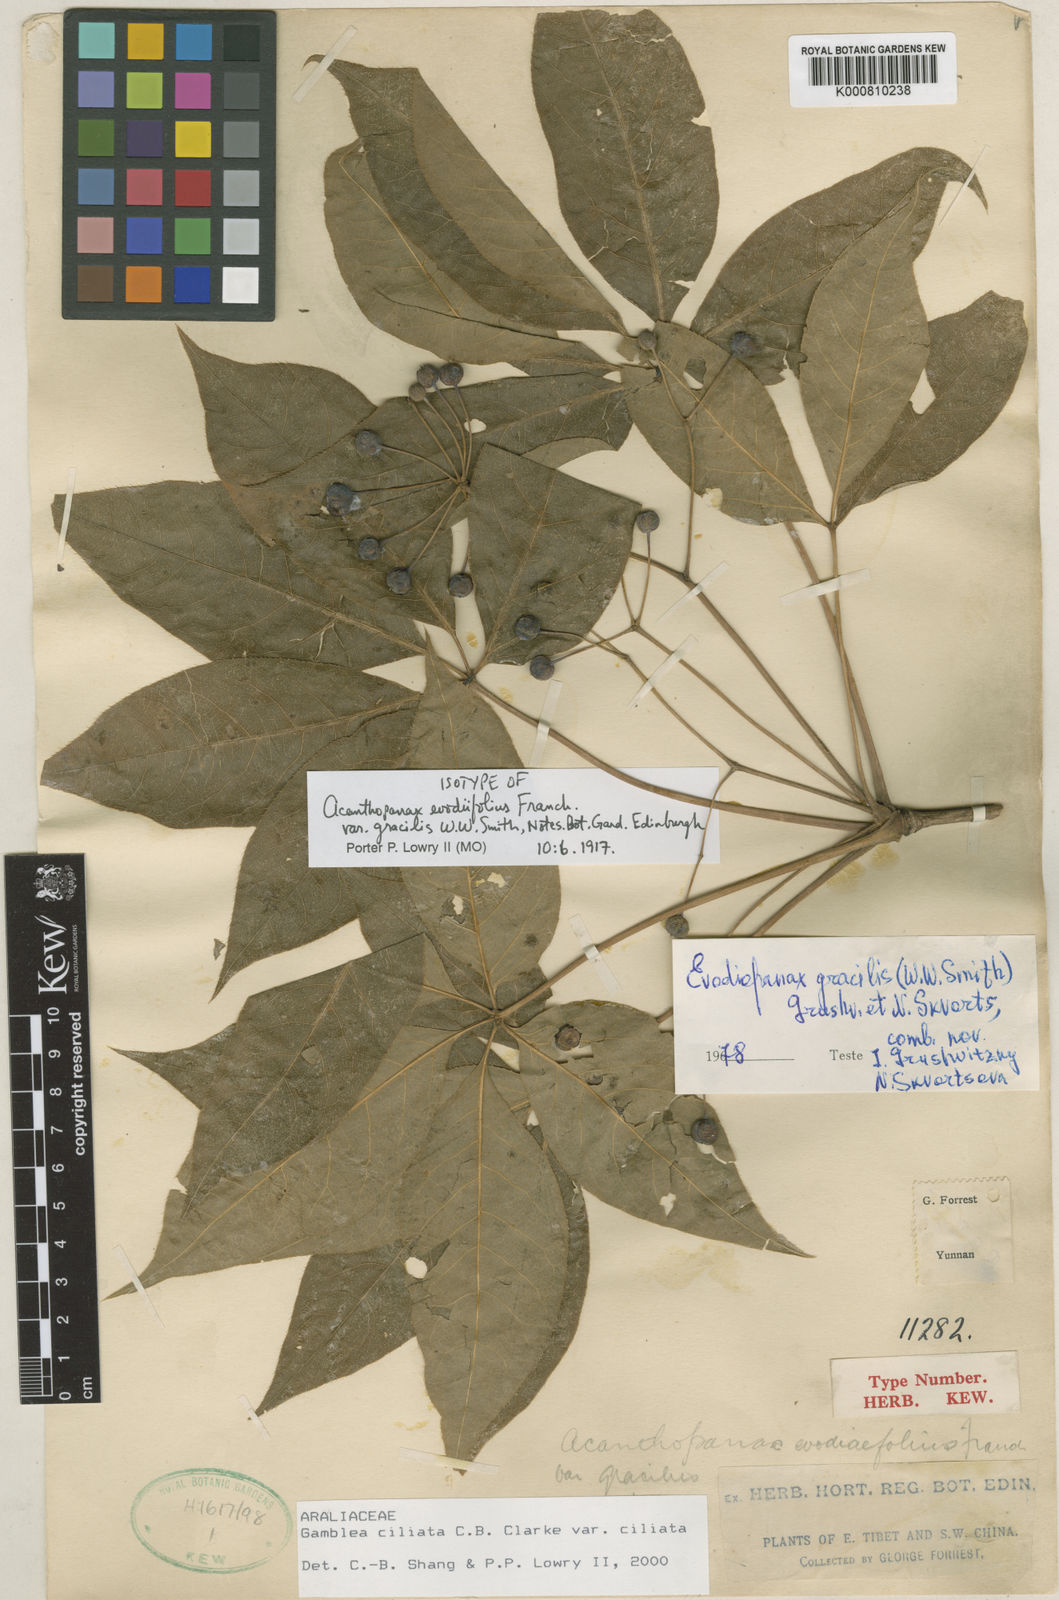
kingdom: Plantae
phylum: Tracheophyta
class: Magnoliopsida
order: Apiales
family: Araliaceae
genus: Gamblea
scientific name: Gamblea ciliata
